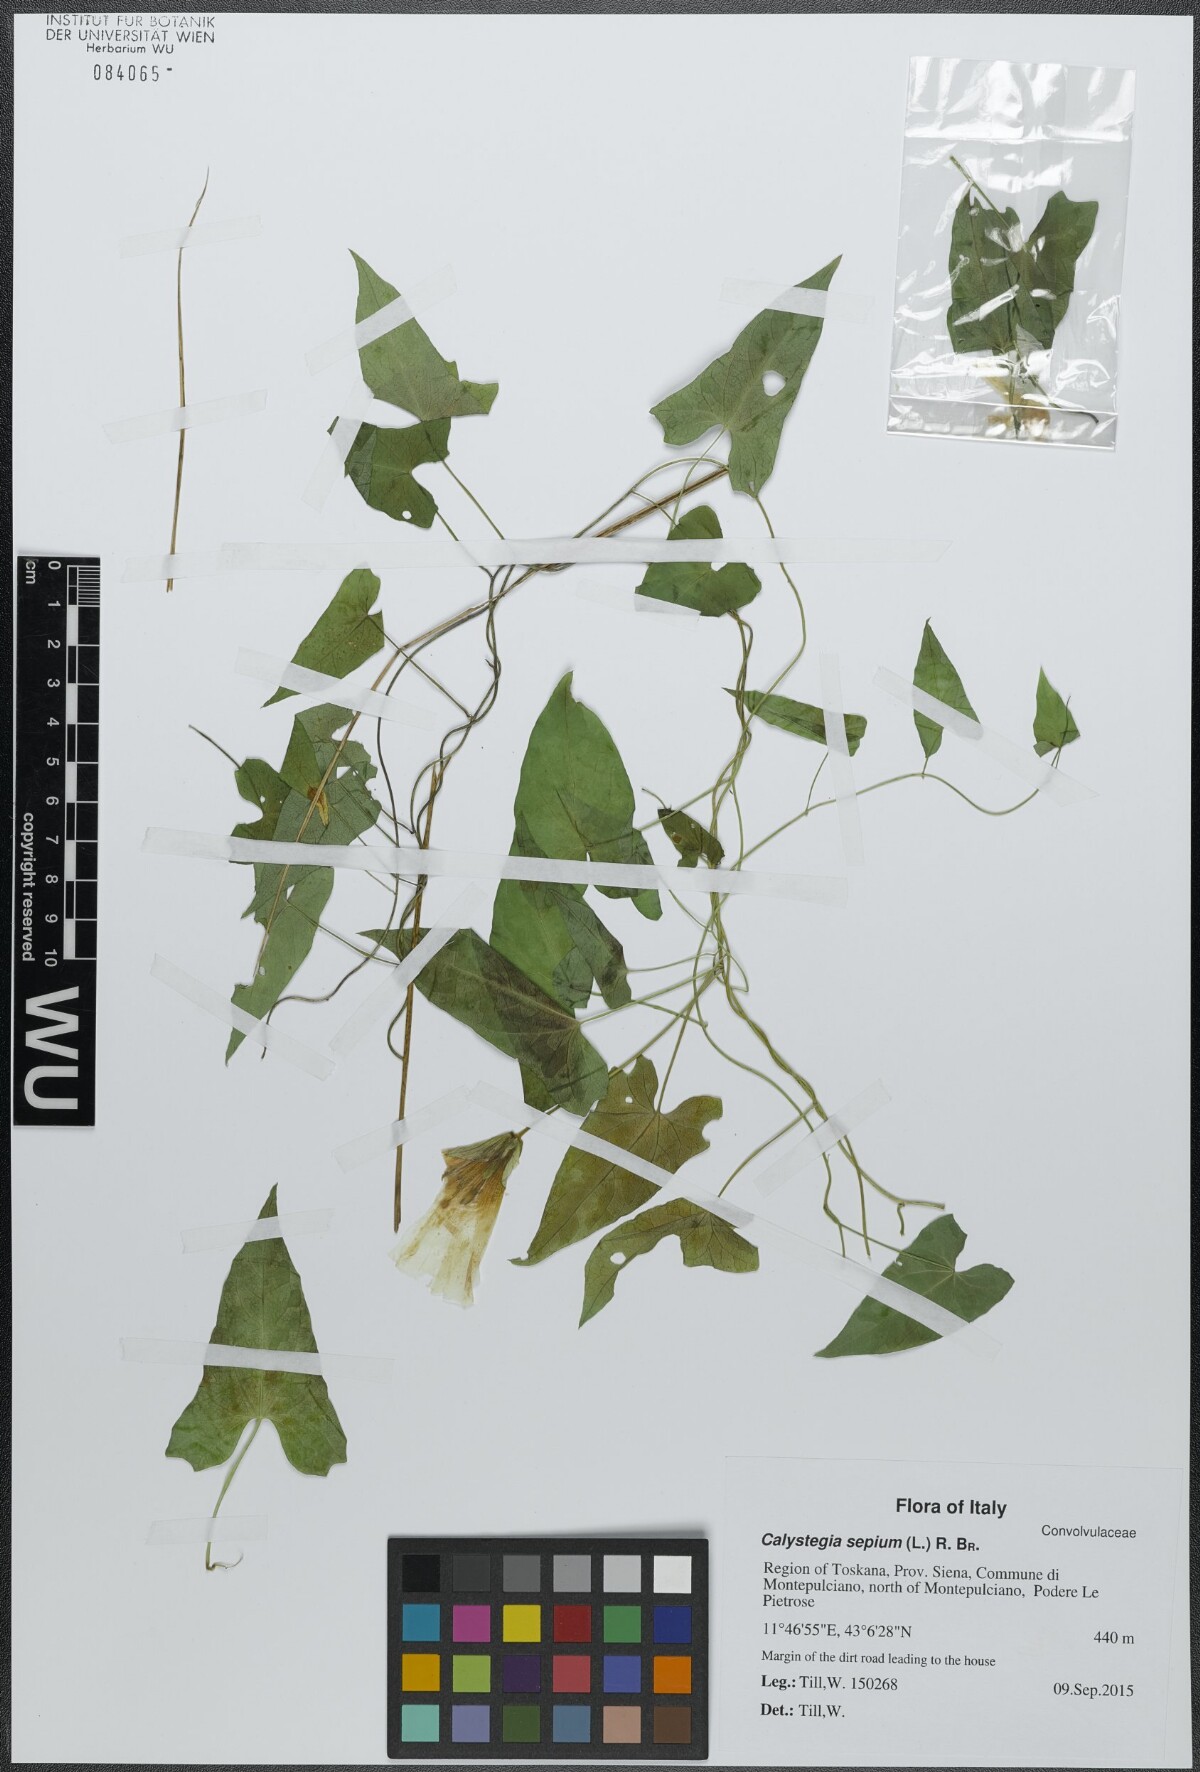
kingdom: Plantae
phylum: Tracheophyta
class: Magnoliopsida
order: Solanales
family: Convolvulaceae
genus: Calystegia
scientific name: Calystegia sepium
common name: Hedge bindweed
